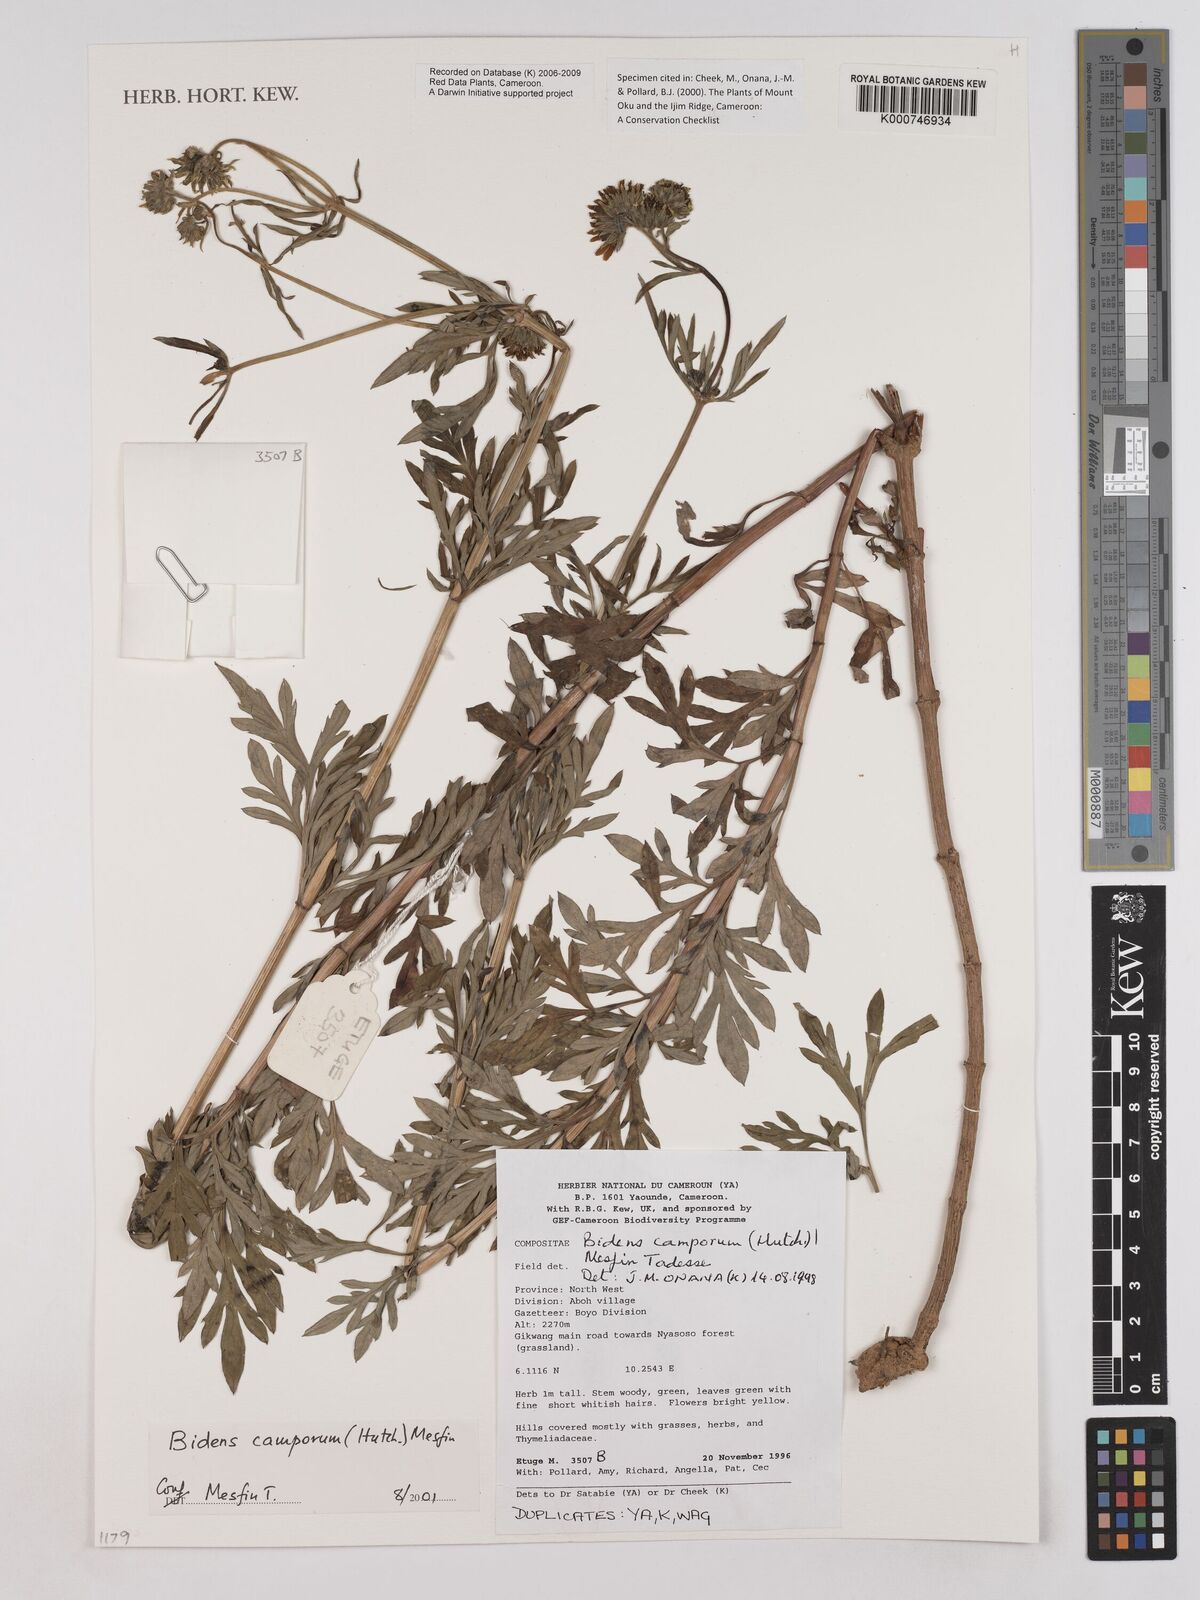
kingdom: Plantae
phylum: Tracheophyta
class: Magnoliopsida
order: Asterales
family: Asteraceae
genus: Bidens
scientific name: Bidens camporum
